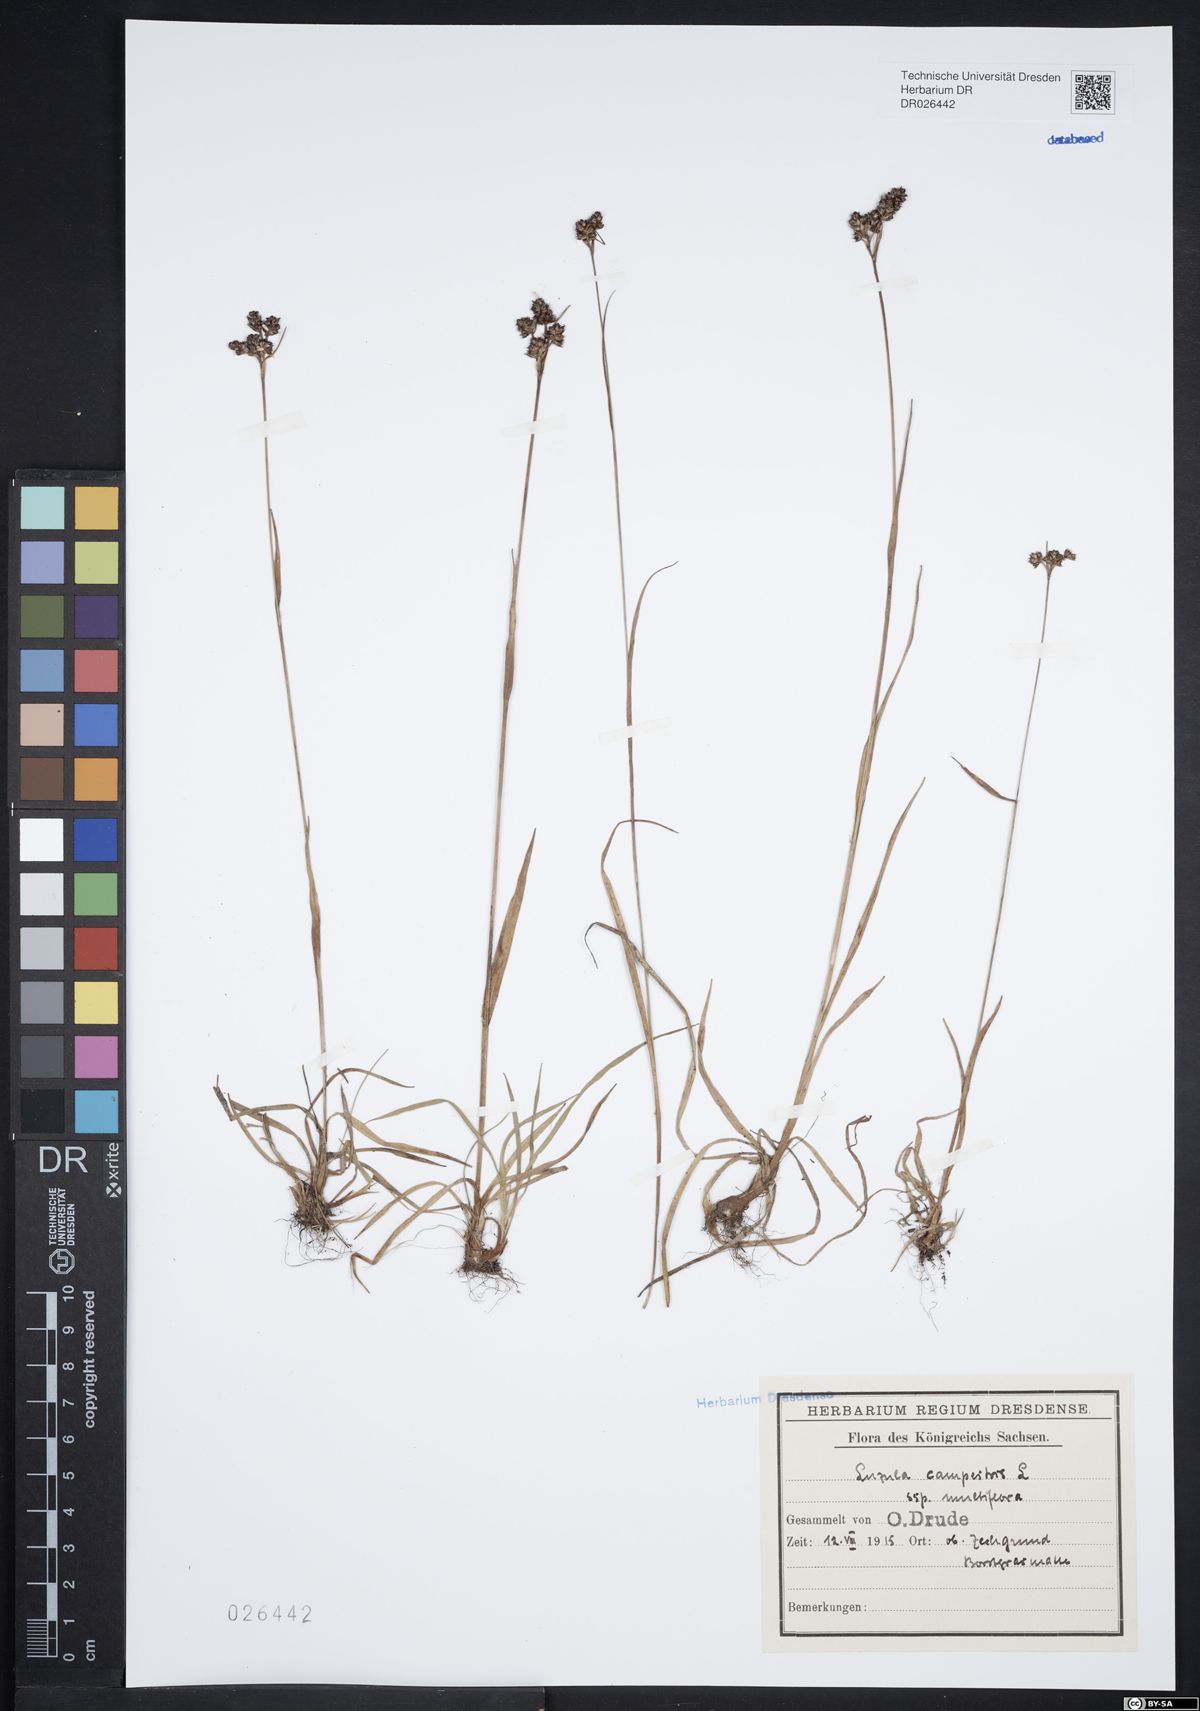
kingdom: Plantae
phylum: Tracheophyta
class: Liliopsida
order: Poales
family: Juncaceae
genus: Luzula
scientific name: Luzula multiflora
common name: Heath wood-rush
